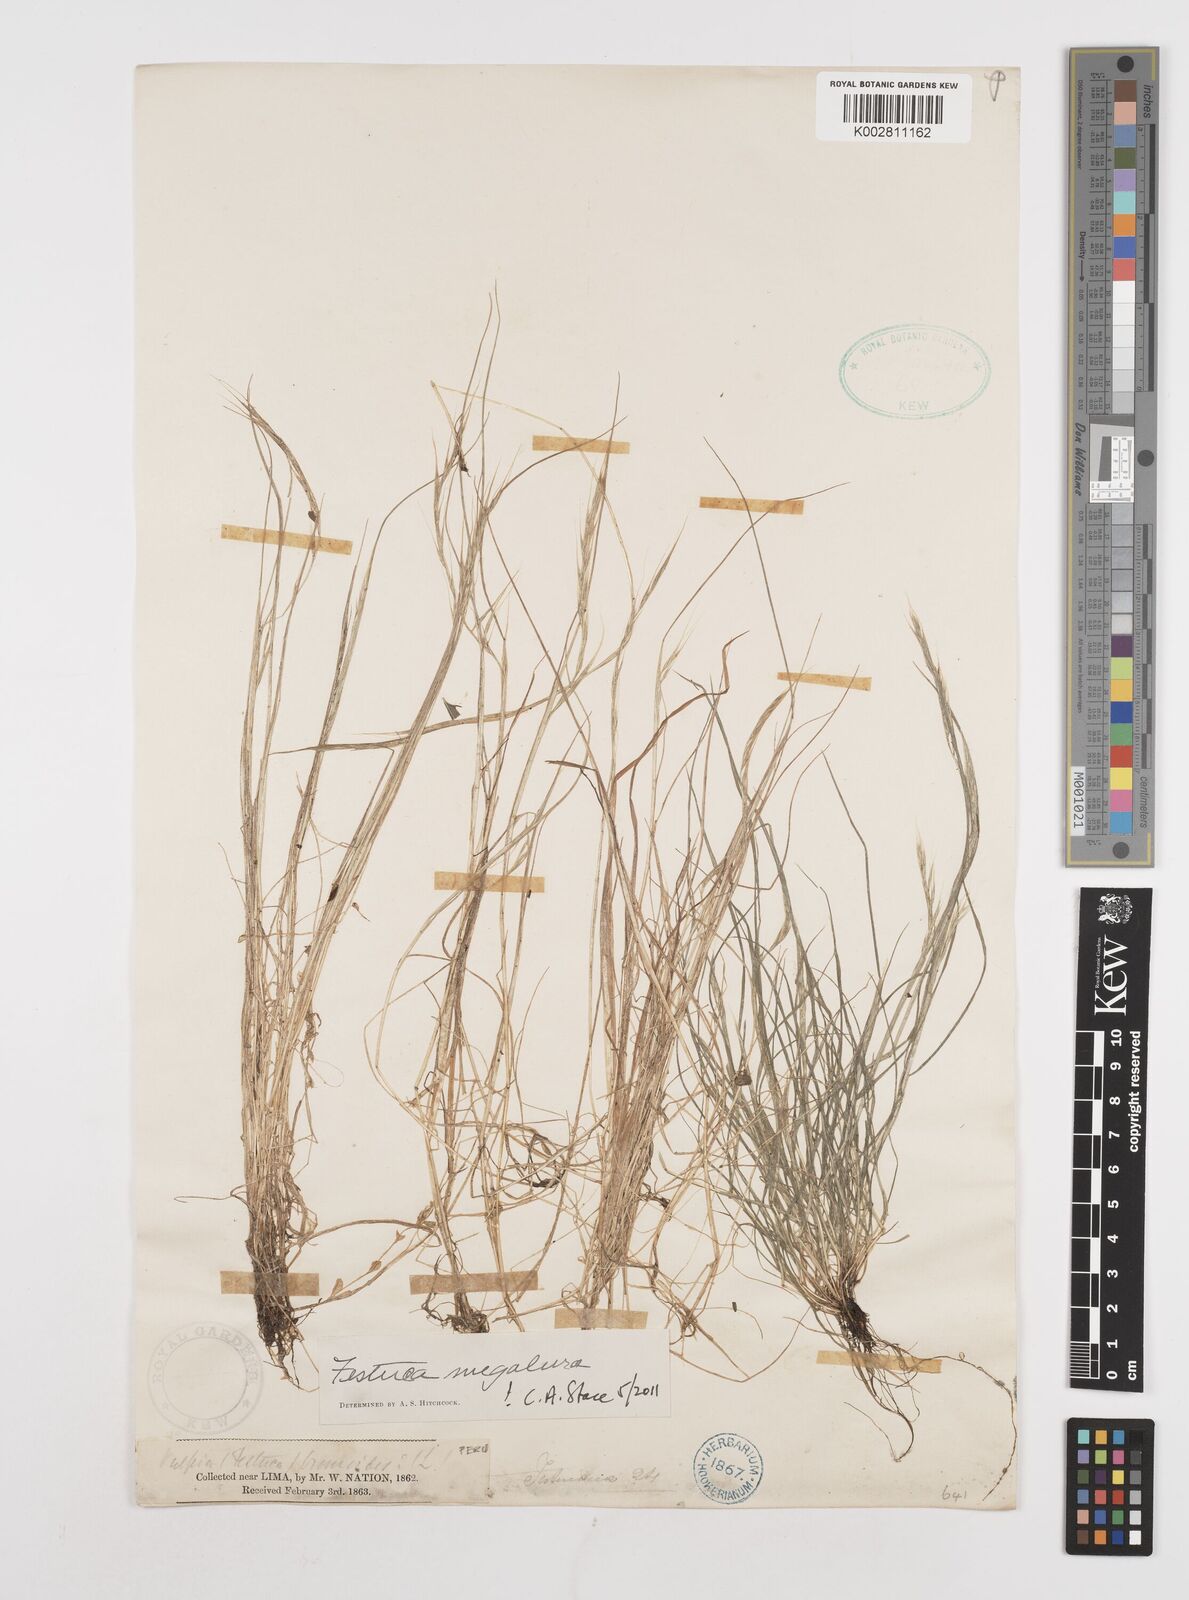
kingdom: Plantae
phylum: Tracheophyta
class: Liliopsida
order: Poales
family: Poaceae
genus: Festuca
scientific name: Festuca myuros
